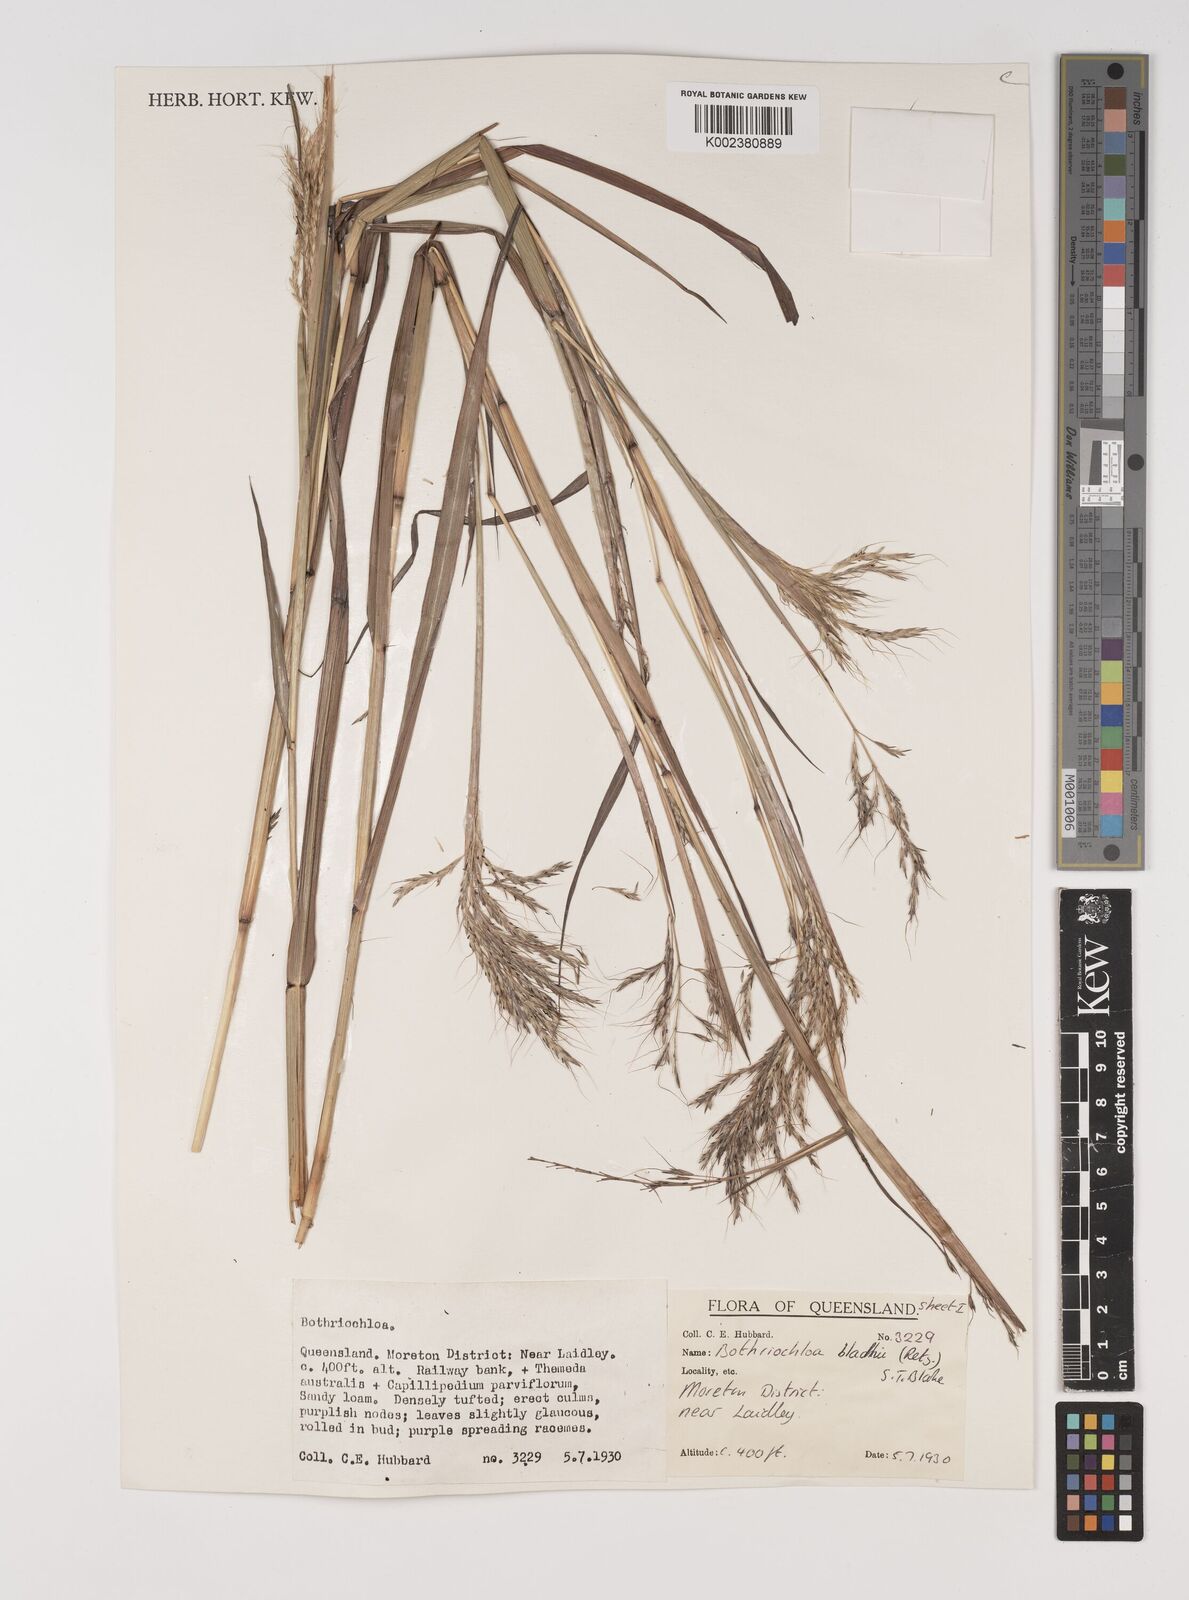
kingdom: Plantae
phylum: Tracheophyta
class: Liliopsida
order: Poales
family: Poaceae
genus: Bothriochloa
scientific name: Bothriochloa bladhii
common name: Caucasian bluestem
